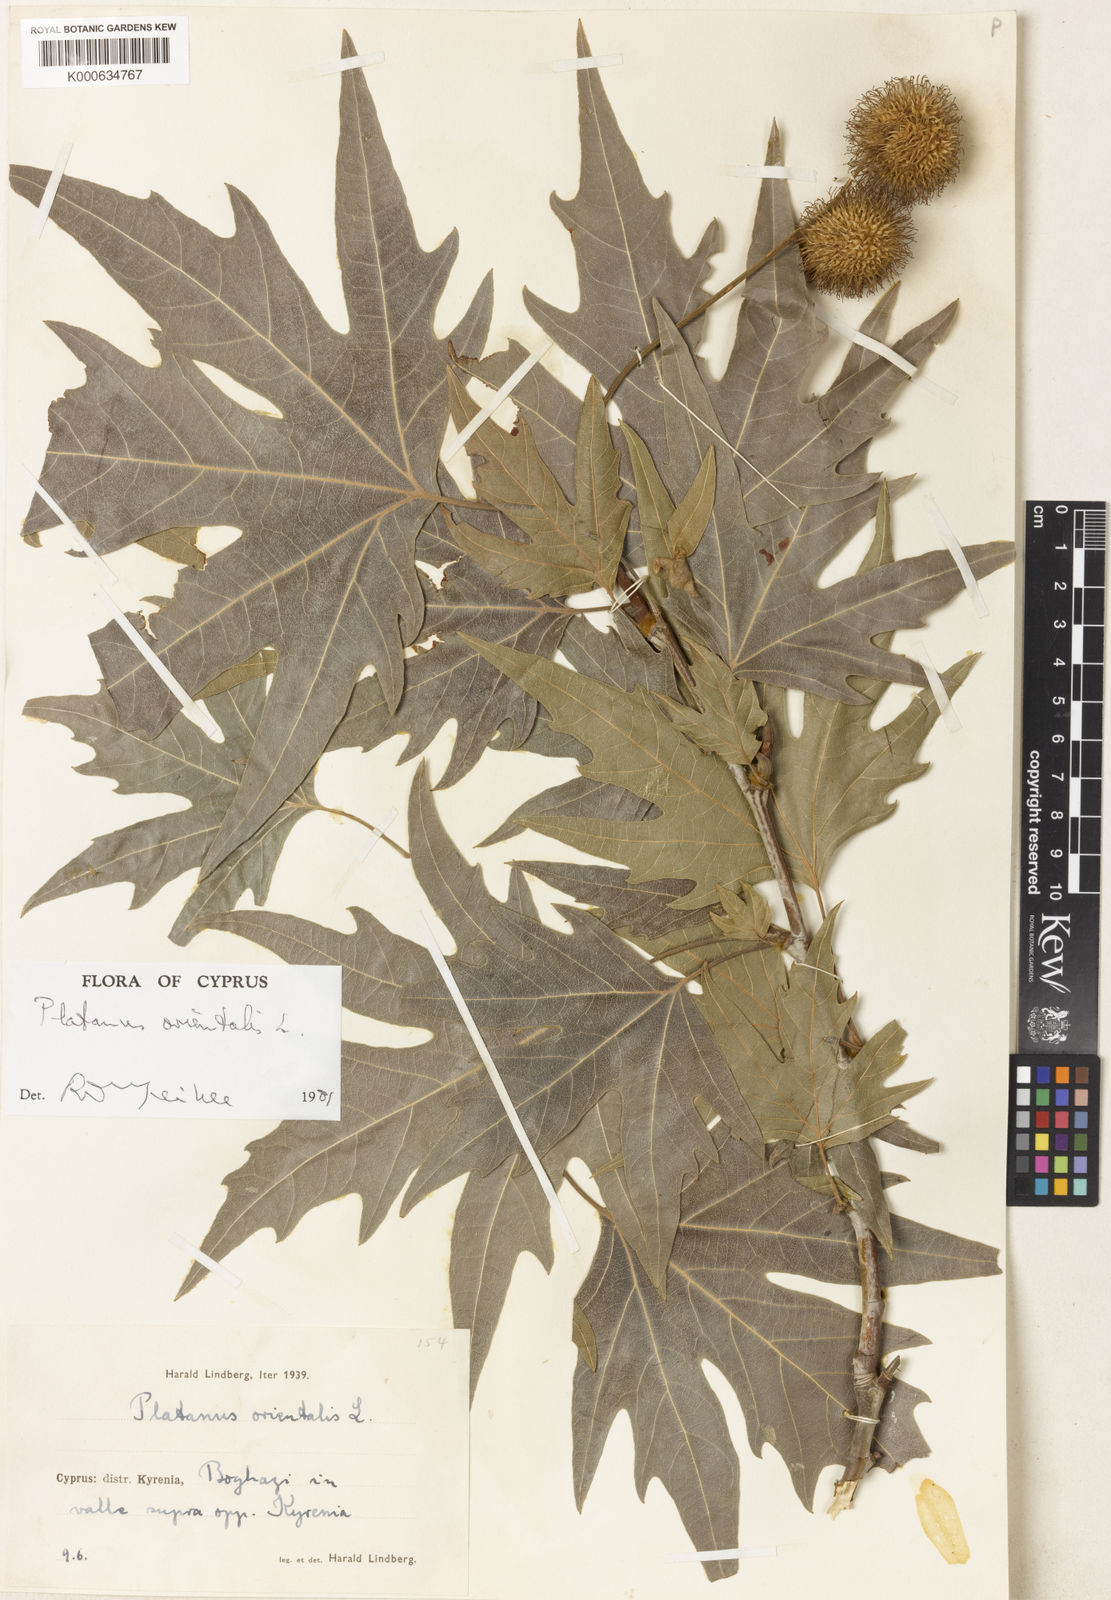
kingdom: Plantae
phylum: Tracheophyta
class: Magnoliopsida
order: Proteales
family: Platanaceae
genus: Platanus
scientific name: Platanus orientalis
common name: Oriental plane
